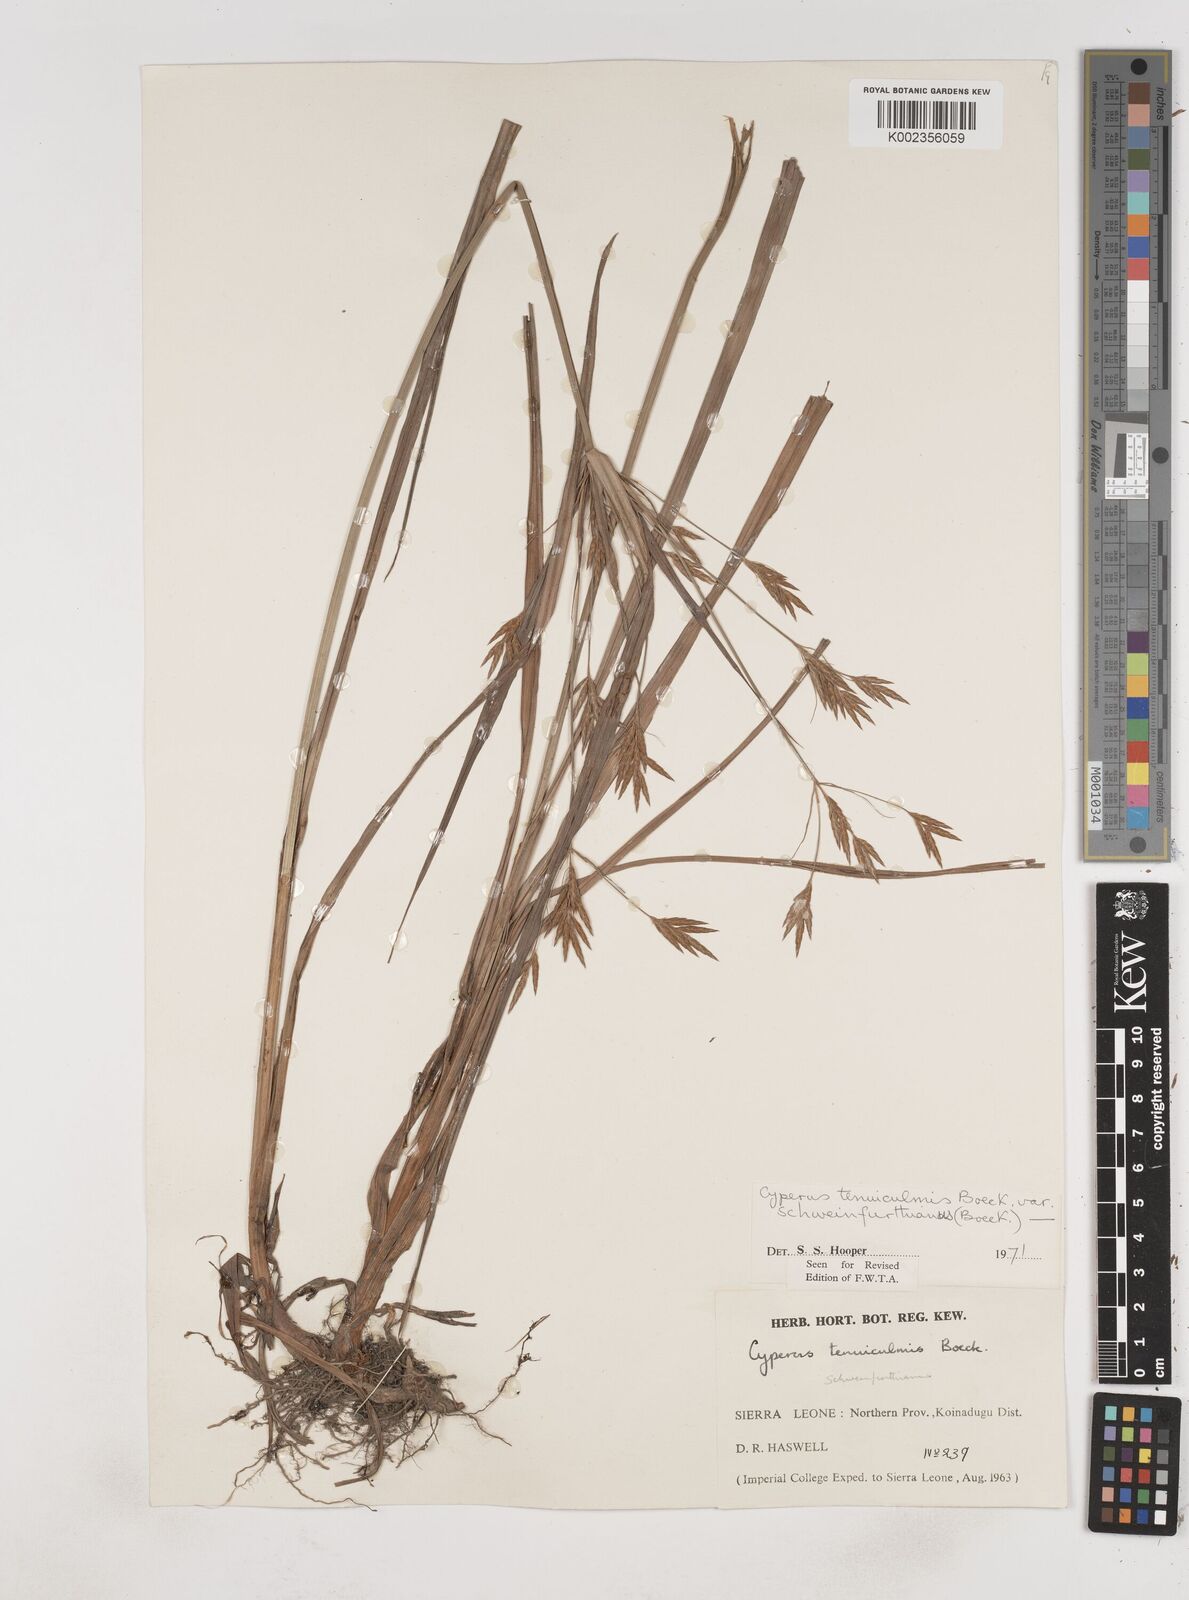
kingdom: Plantae
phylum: Tracheophyta
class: Liliopsida
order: Poales
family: Cyperaceae
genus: Cyperus
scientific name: Cyperus tenuiculmis
